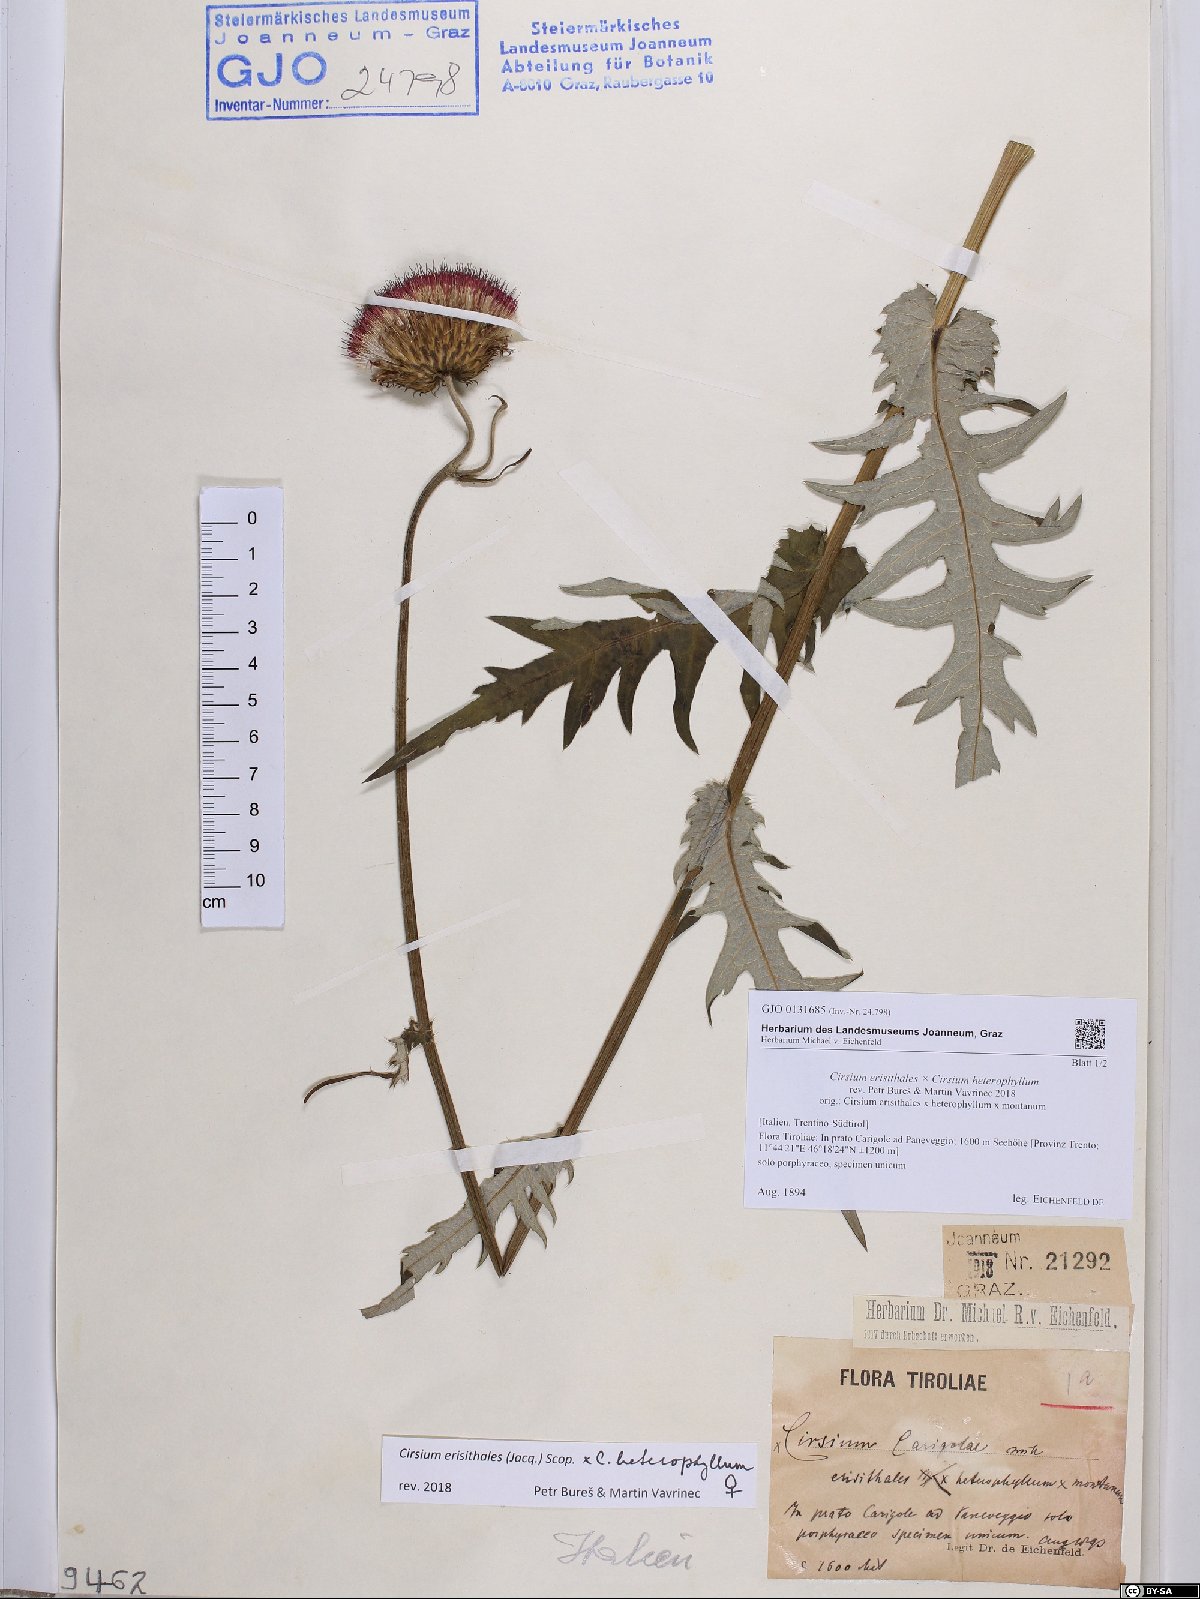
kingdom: Plantae
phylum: Tracheophyta
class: Magnoliopsida
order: Asterales
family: Asteraceae
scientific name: Asteraceae
